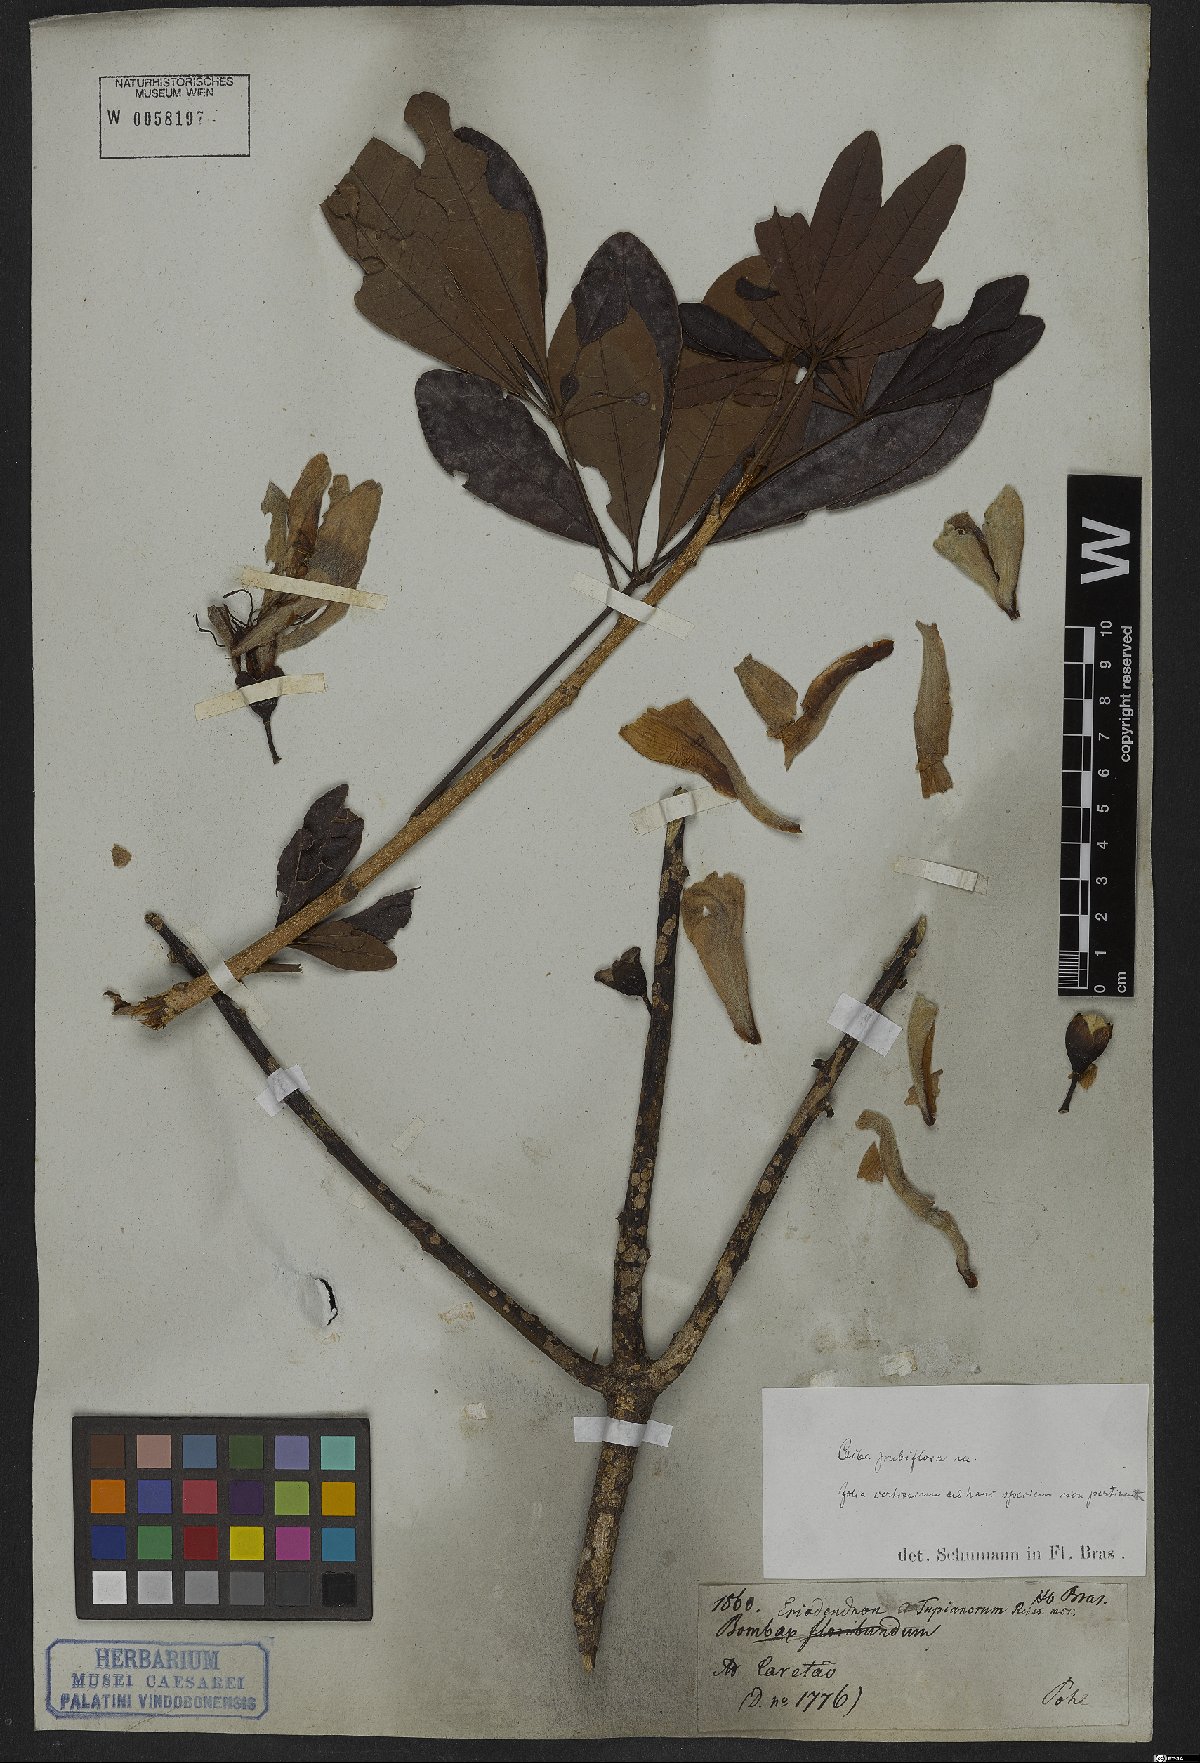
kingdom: Plantae
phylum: Tracheophyta
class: Magnoliopsida
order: Malvales
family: Malvaceae
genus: Ceiba
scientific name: Ceiba pubiflora
